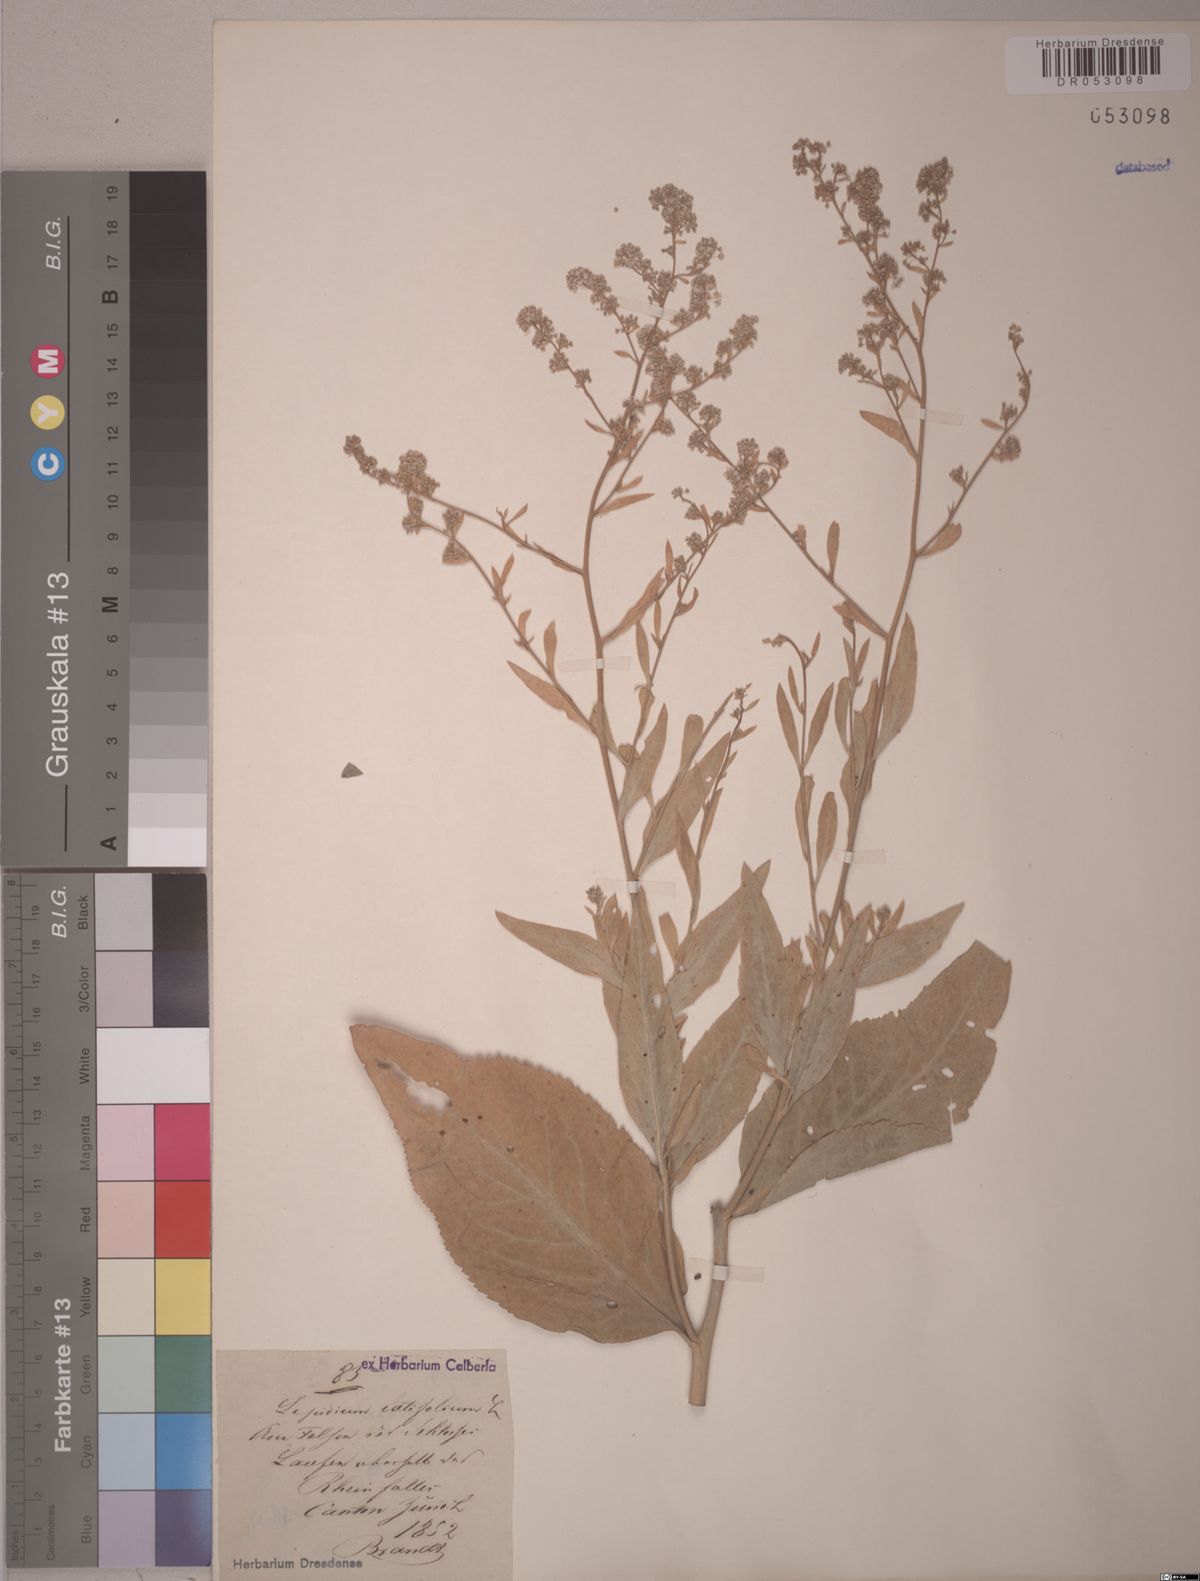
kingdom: Plantae
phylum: Tracheophyta
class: Magnoliopsida
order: Brassicales
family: Brassicaceae
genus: Lepidium
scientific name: Lepidium latifolium
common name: Dittander
